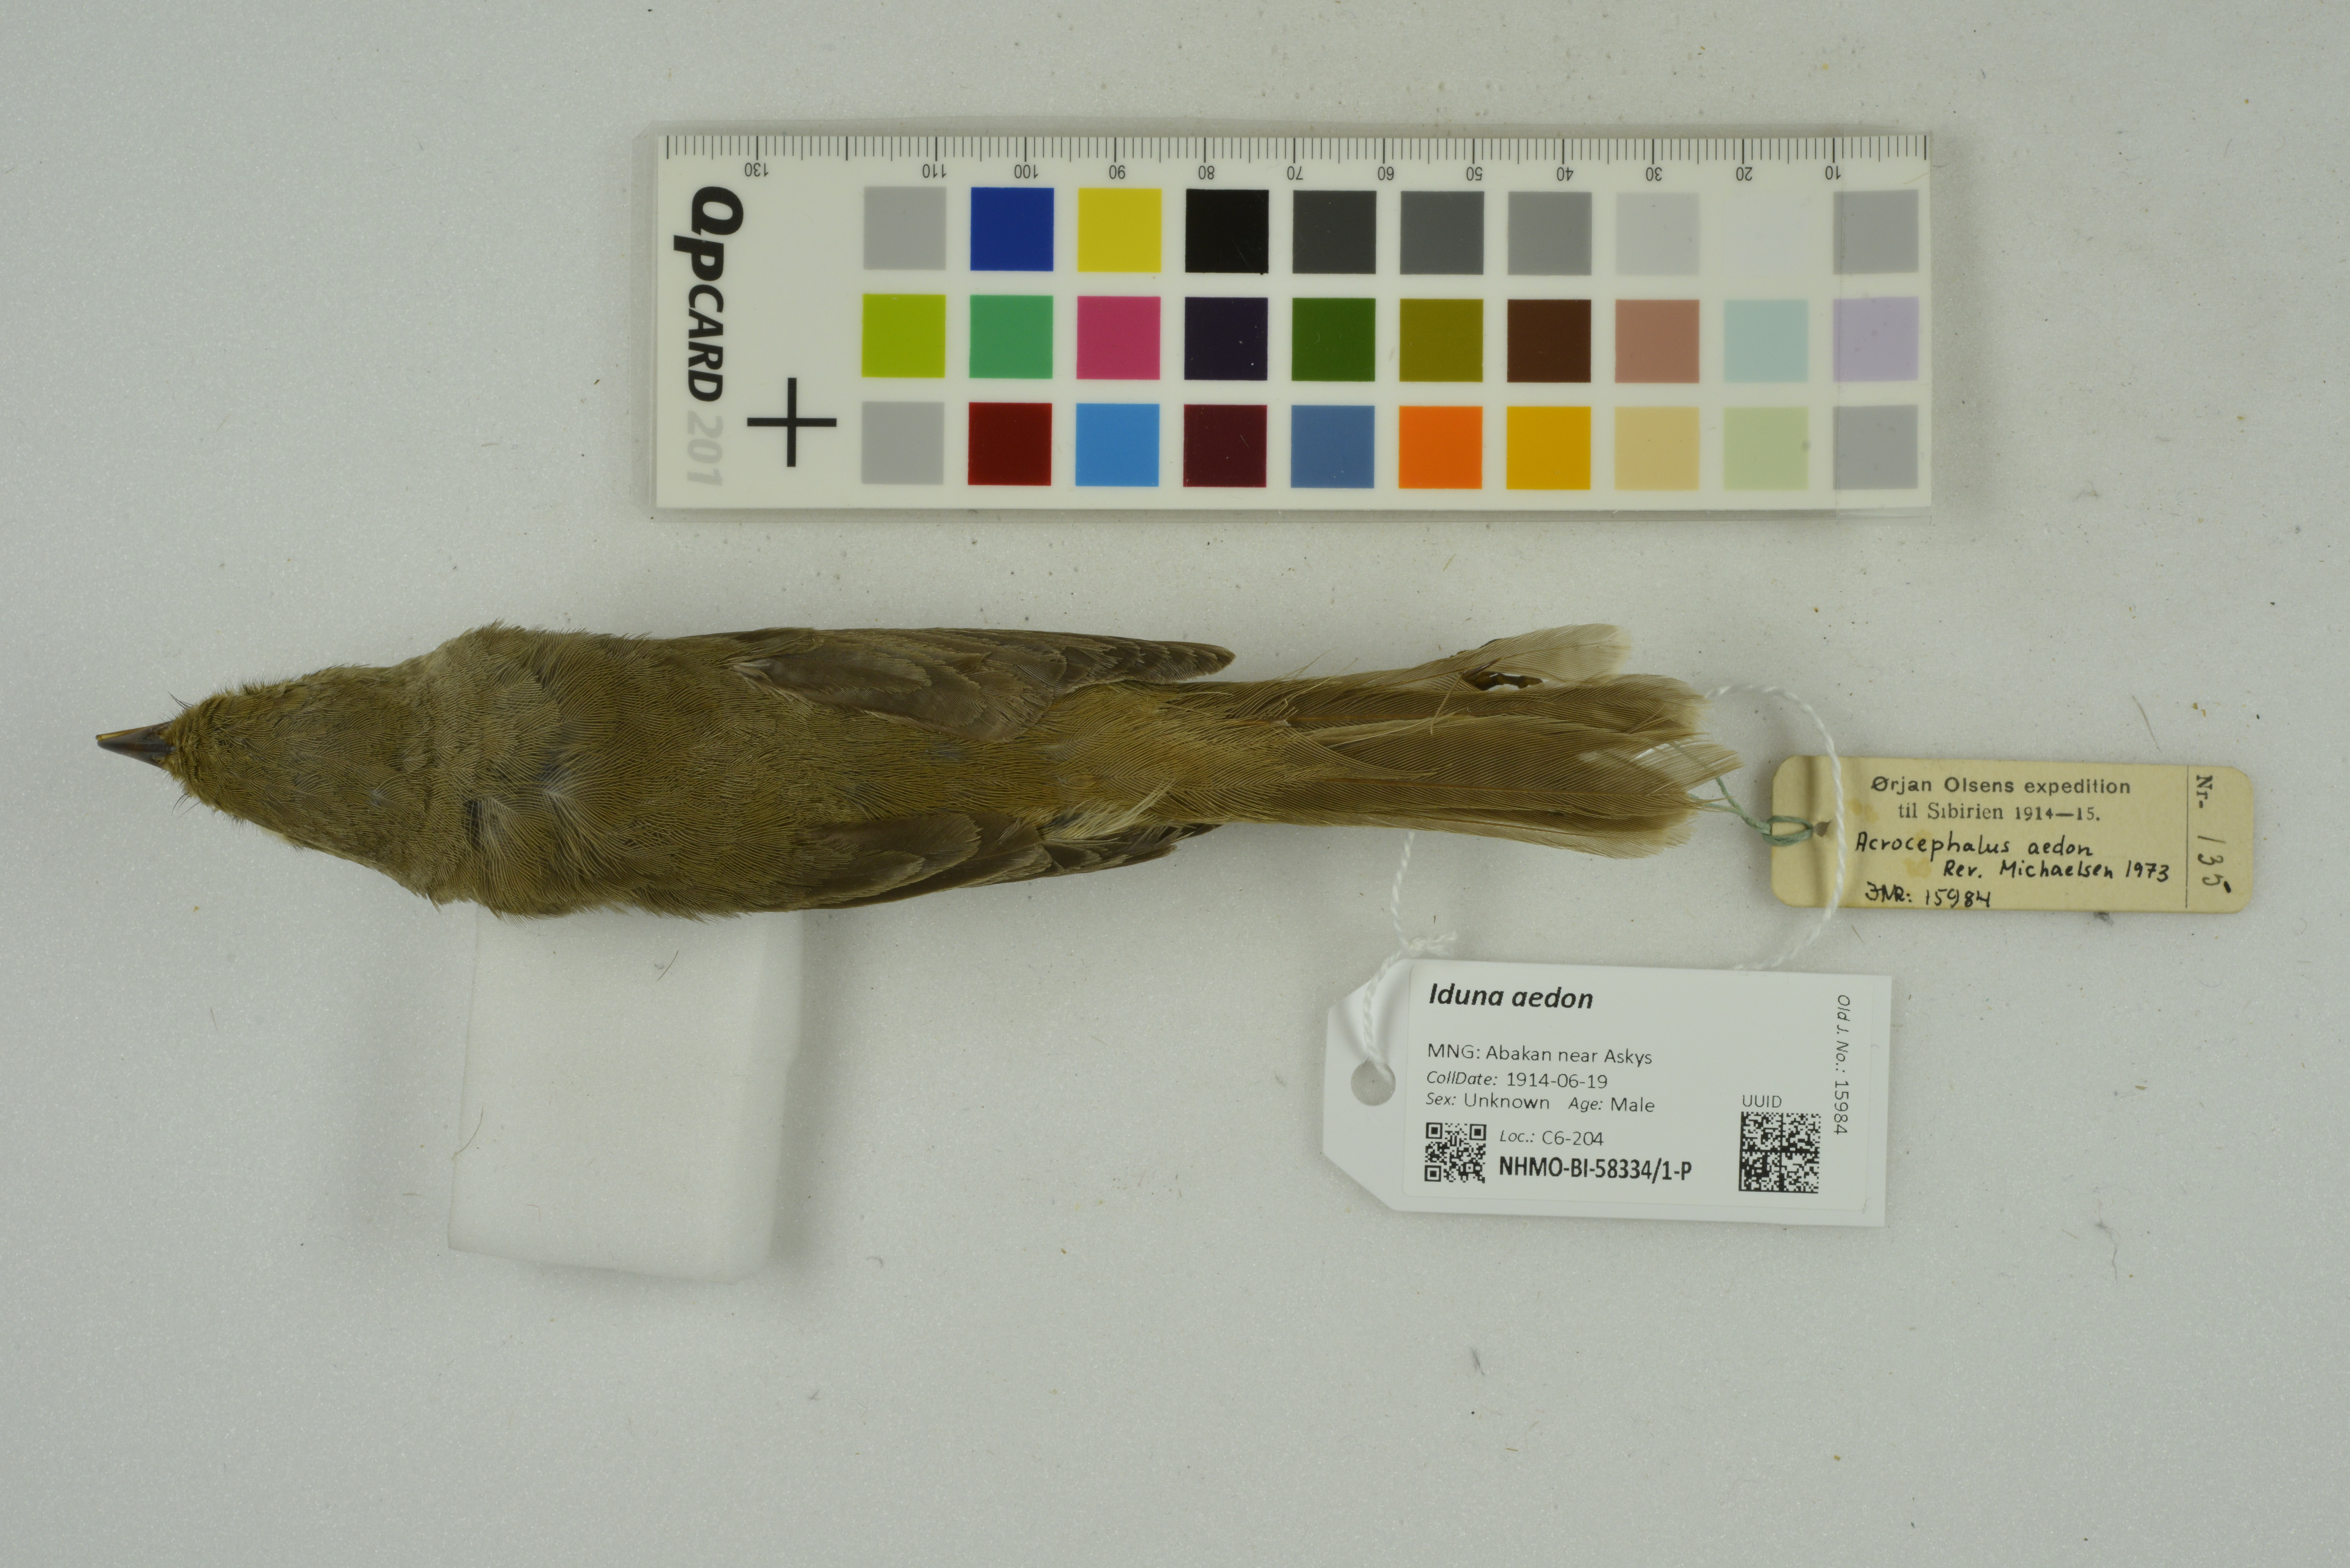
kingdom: Animalia
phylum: Chordata
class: Aves
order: Passeriformes
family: Acrocephalidae
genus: Iduna
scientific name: Iduna aedon
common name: Thick-billed warbler
